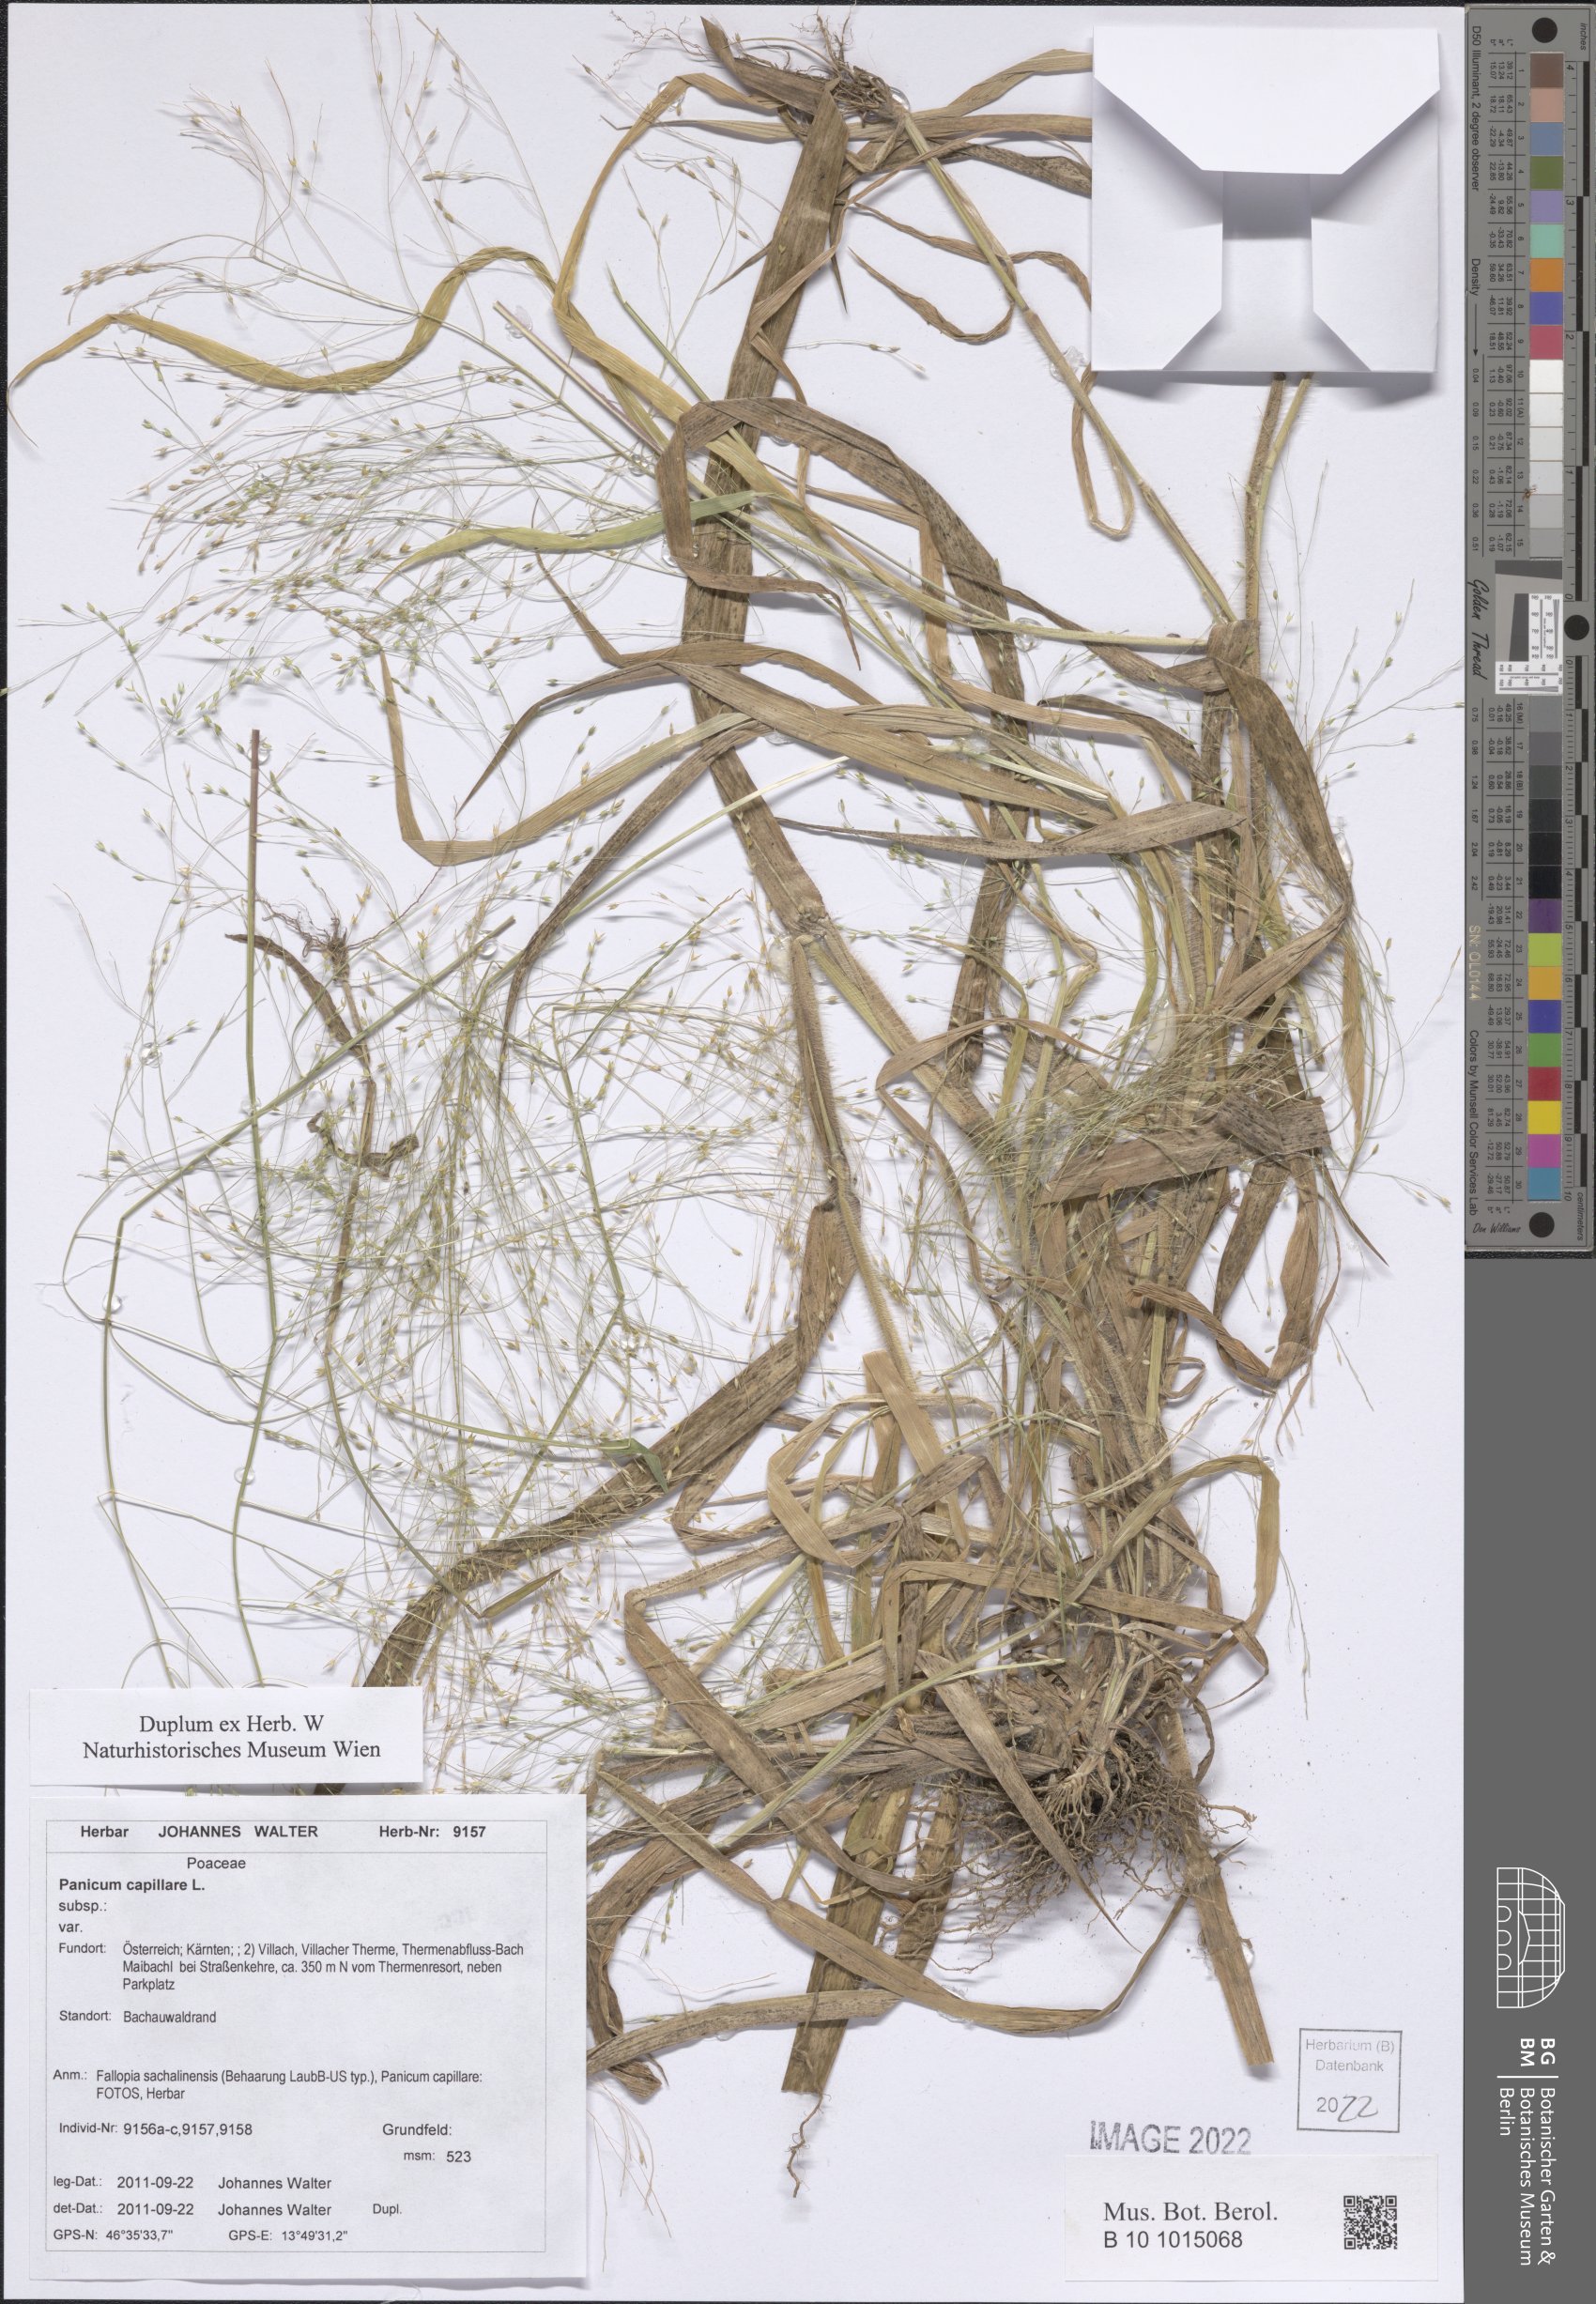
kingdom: Plantae
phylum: Tracheophyta
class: Liliopsida
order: Poales
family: Poaceae
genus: Panicum
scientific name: Panicum capillare
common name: Witch-grass
